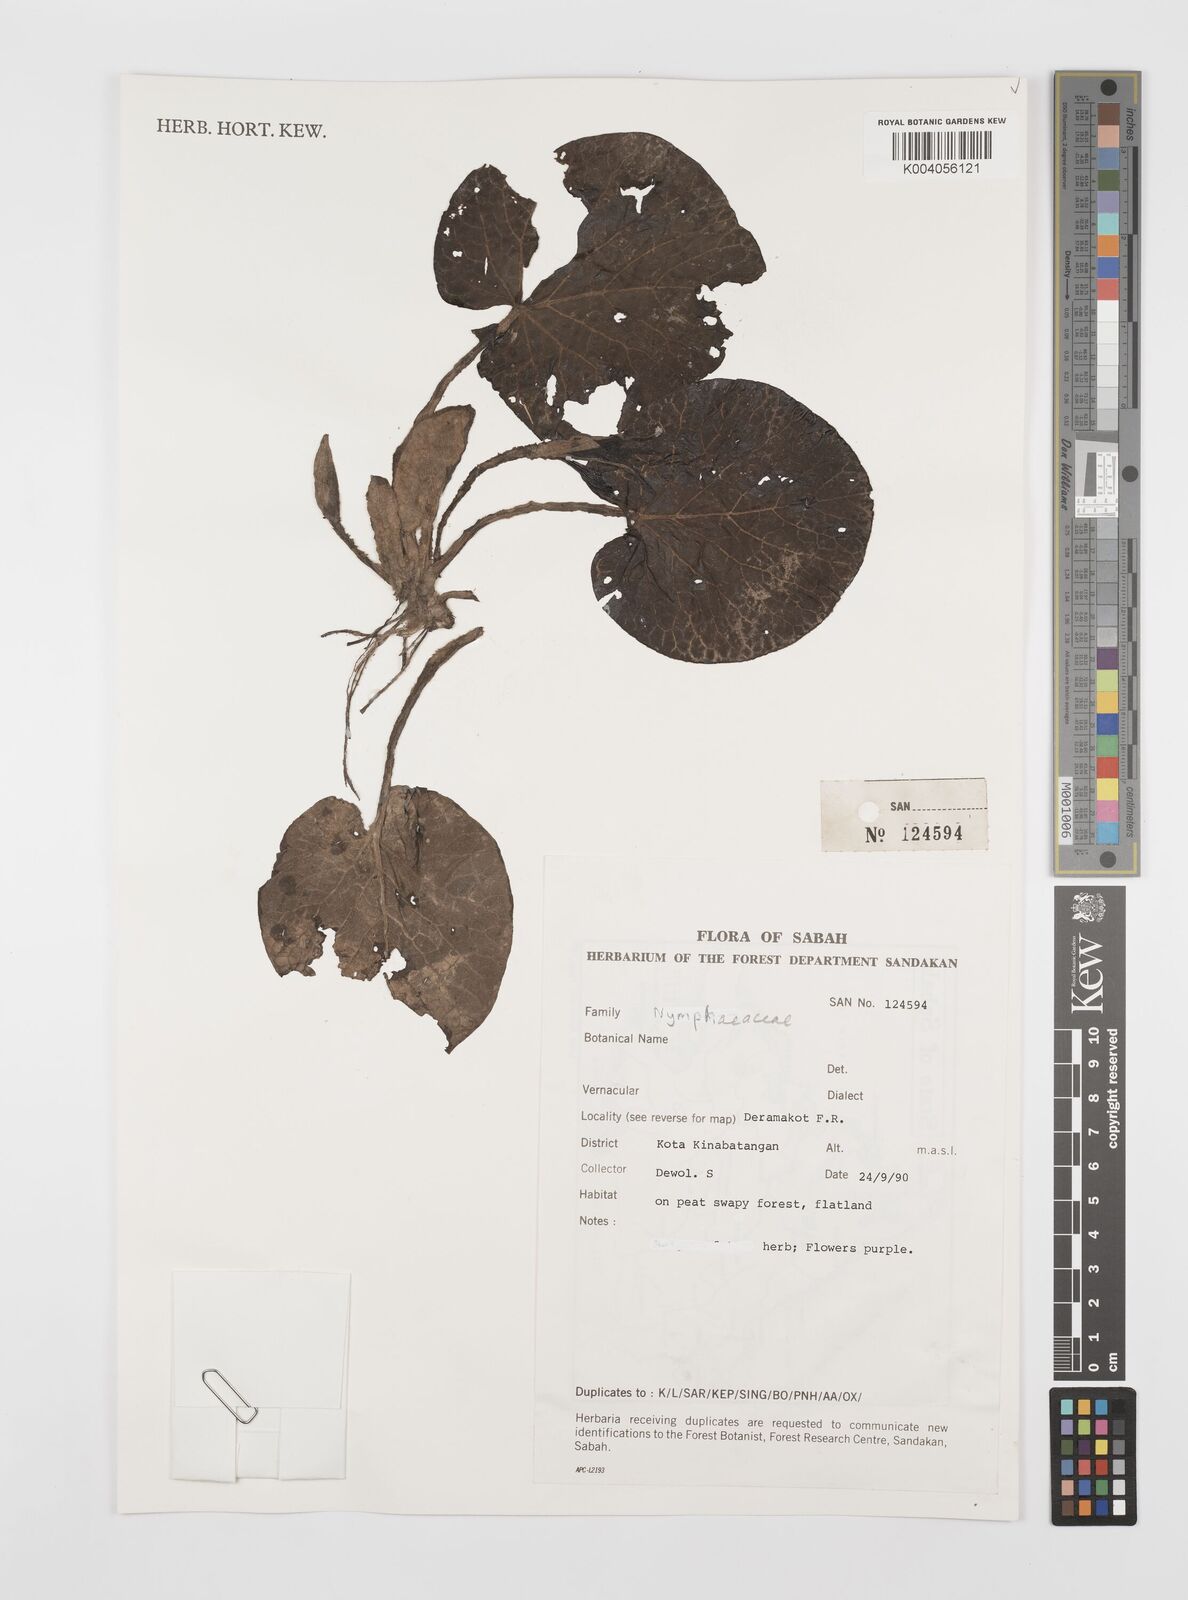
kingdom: Plantae
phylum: Tracheophyta
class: Magnoliopsida
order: Nymphaeales
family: Nymphaeaceae
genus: Nymphaea
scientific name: Nymphaea
